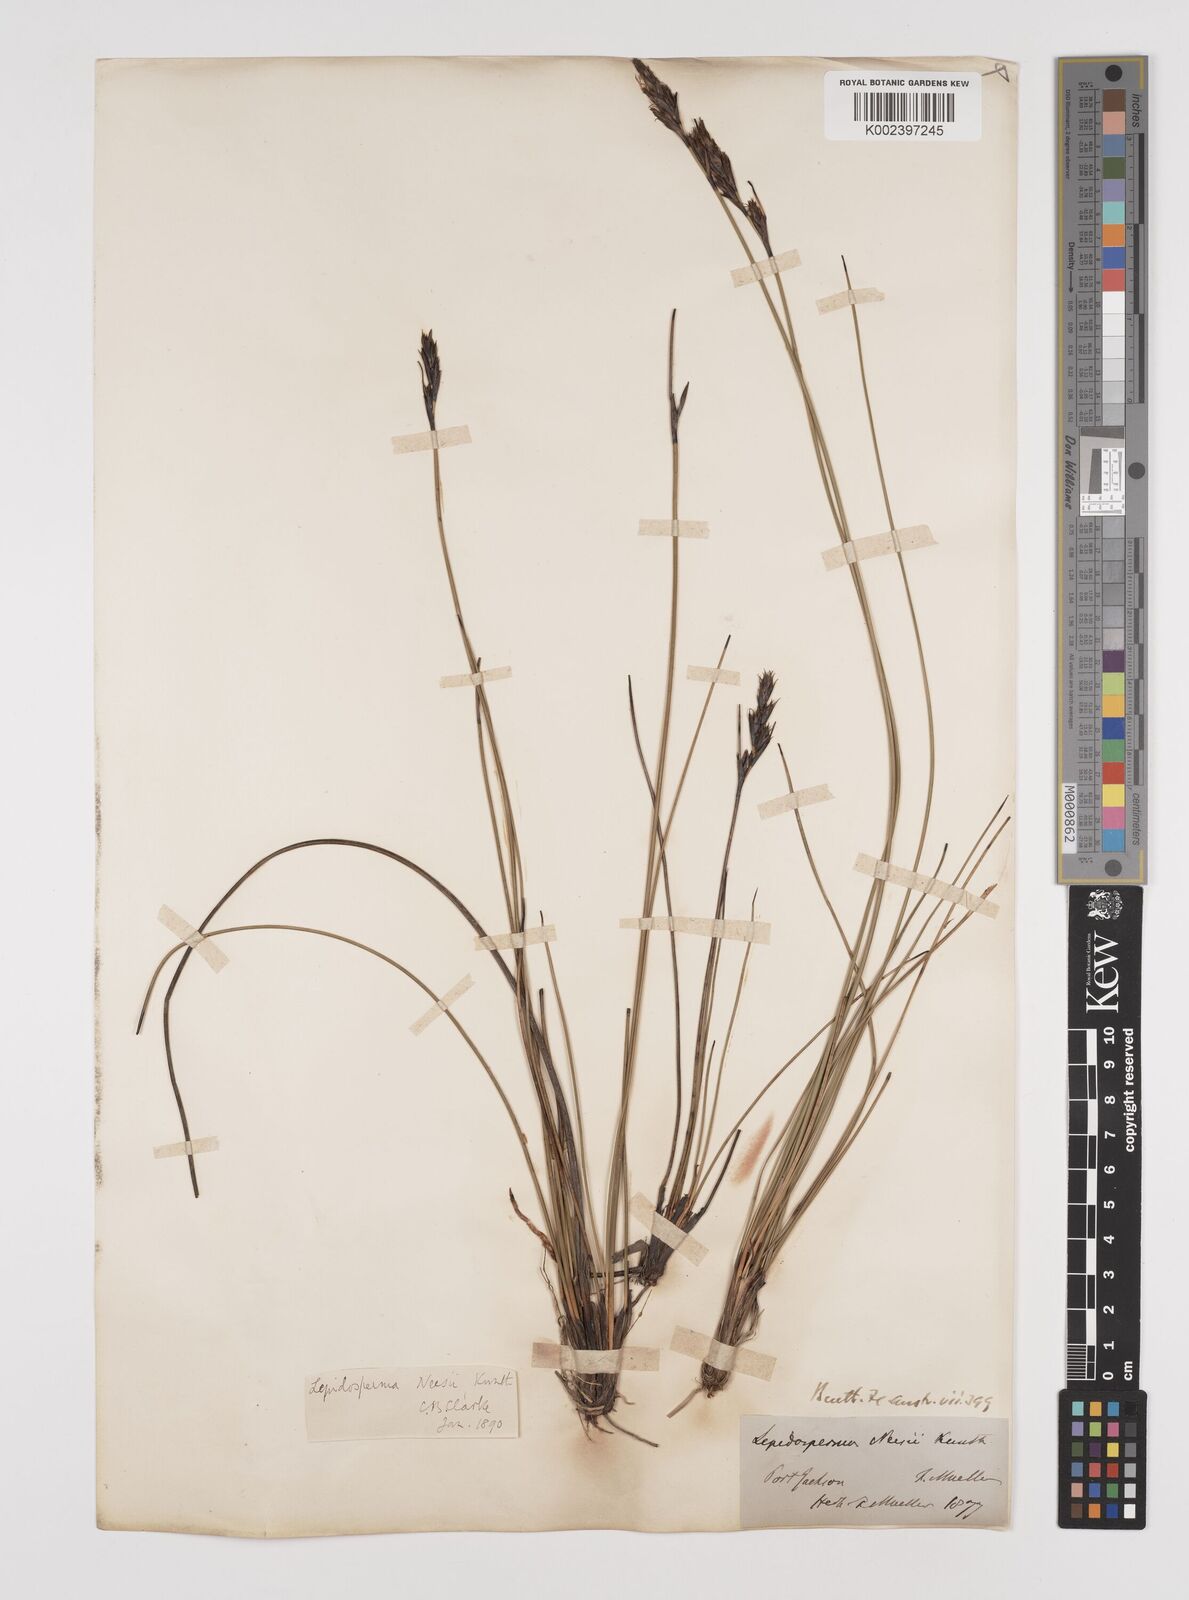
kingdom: Plantae
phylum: Tracheophyta
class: Liliopsida
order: Poales
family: Cyperaceae
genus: Lepidosperma
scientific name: Lepidosperma neesii
